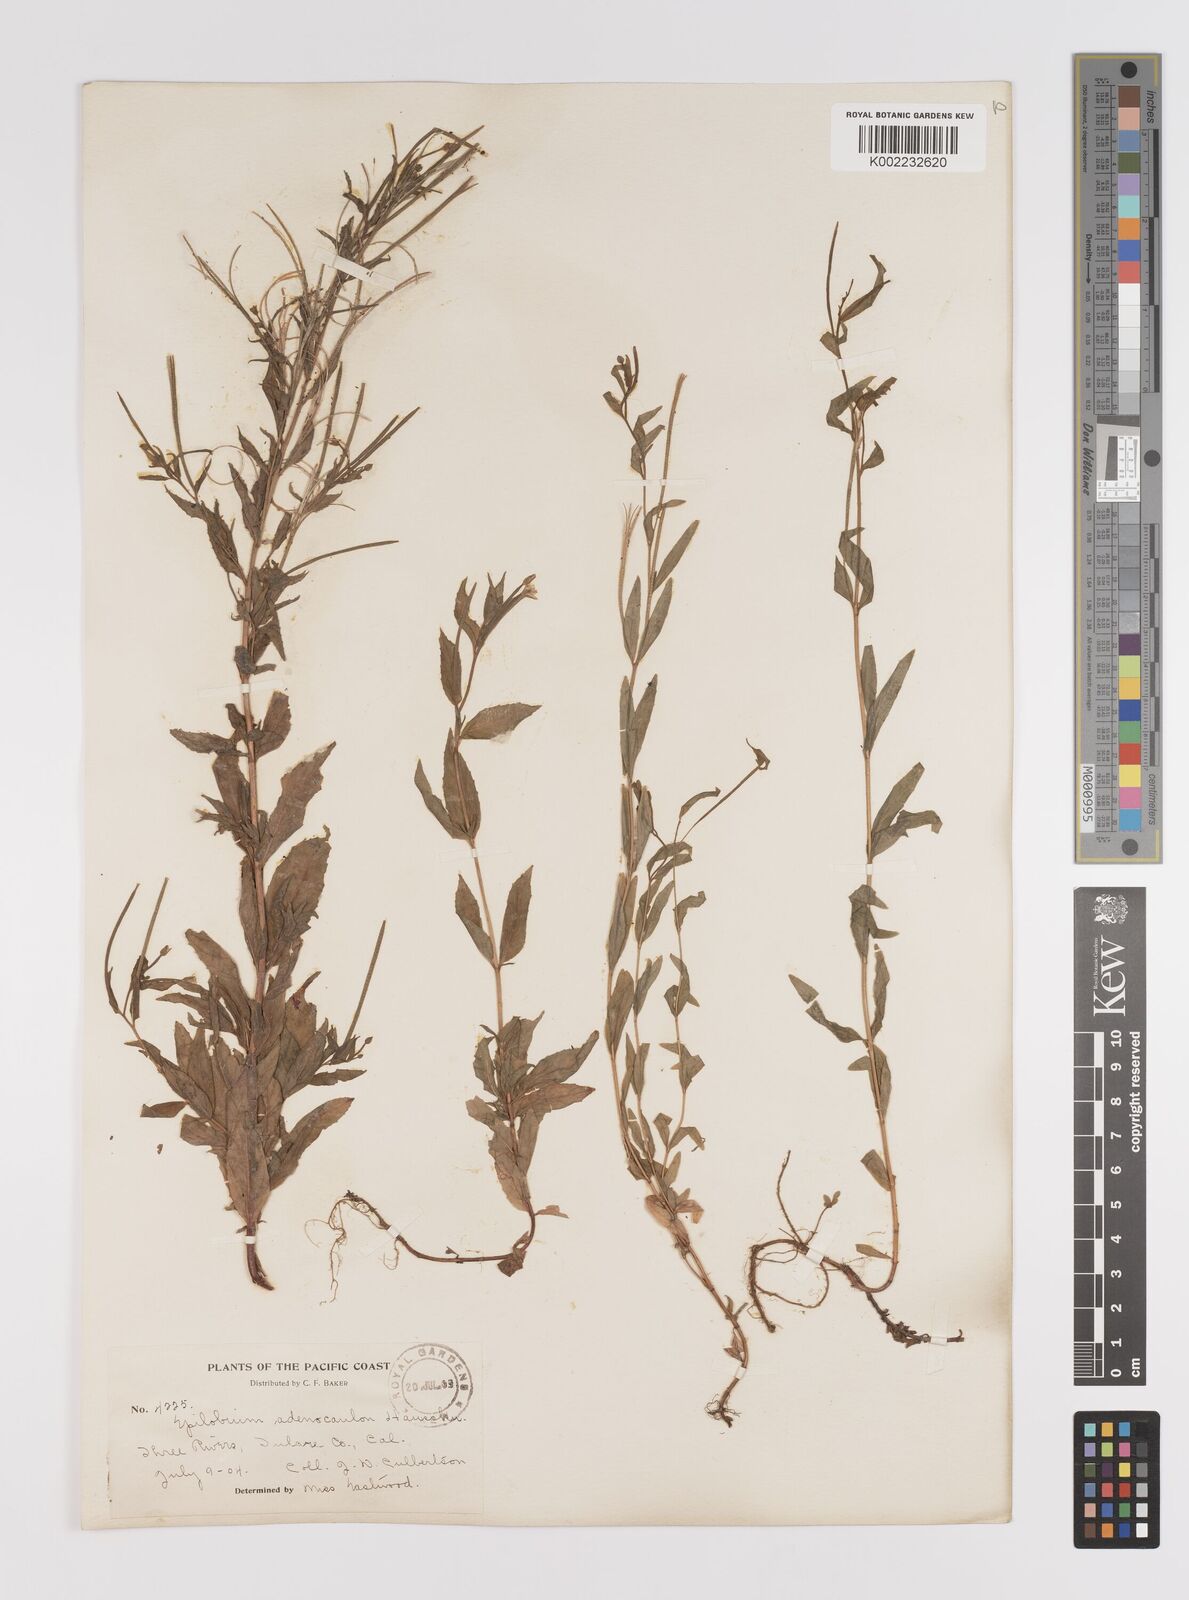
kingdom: Plantae
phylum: Tracheophyta
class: Magnoliopsida
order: Myrtales
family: Onagraceae
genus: Epilobium
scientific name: Epilobium ciliatum
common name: American willowherb
